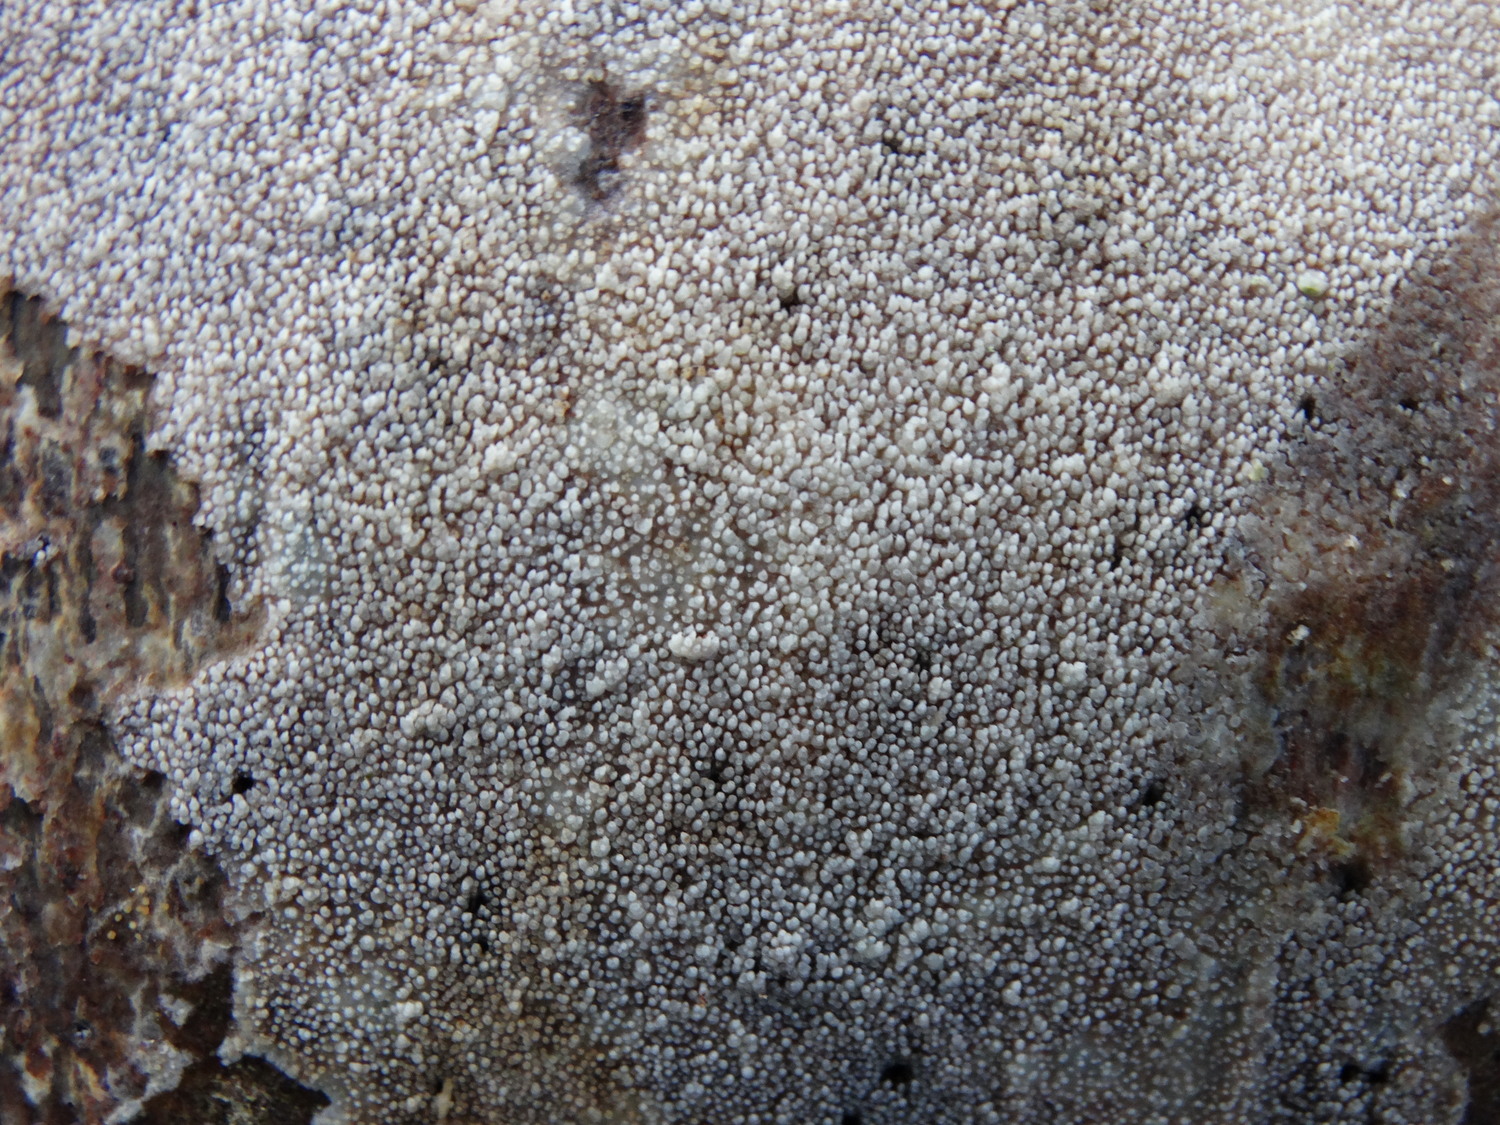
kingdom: Fungi
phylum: Basidiomycota
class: Agaricomycetes
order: Hymenochaetales
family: Rickenellaceae
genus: Resinicium
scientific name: Resinicium bicolor
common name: almindelig vokstand
